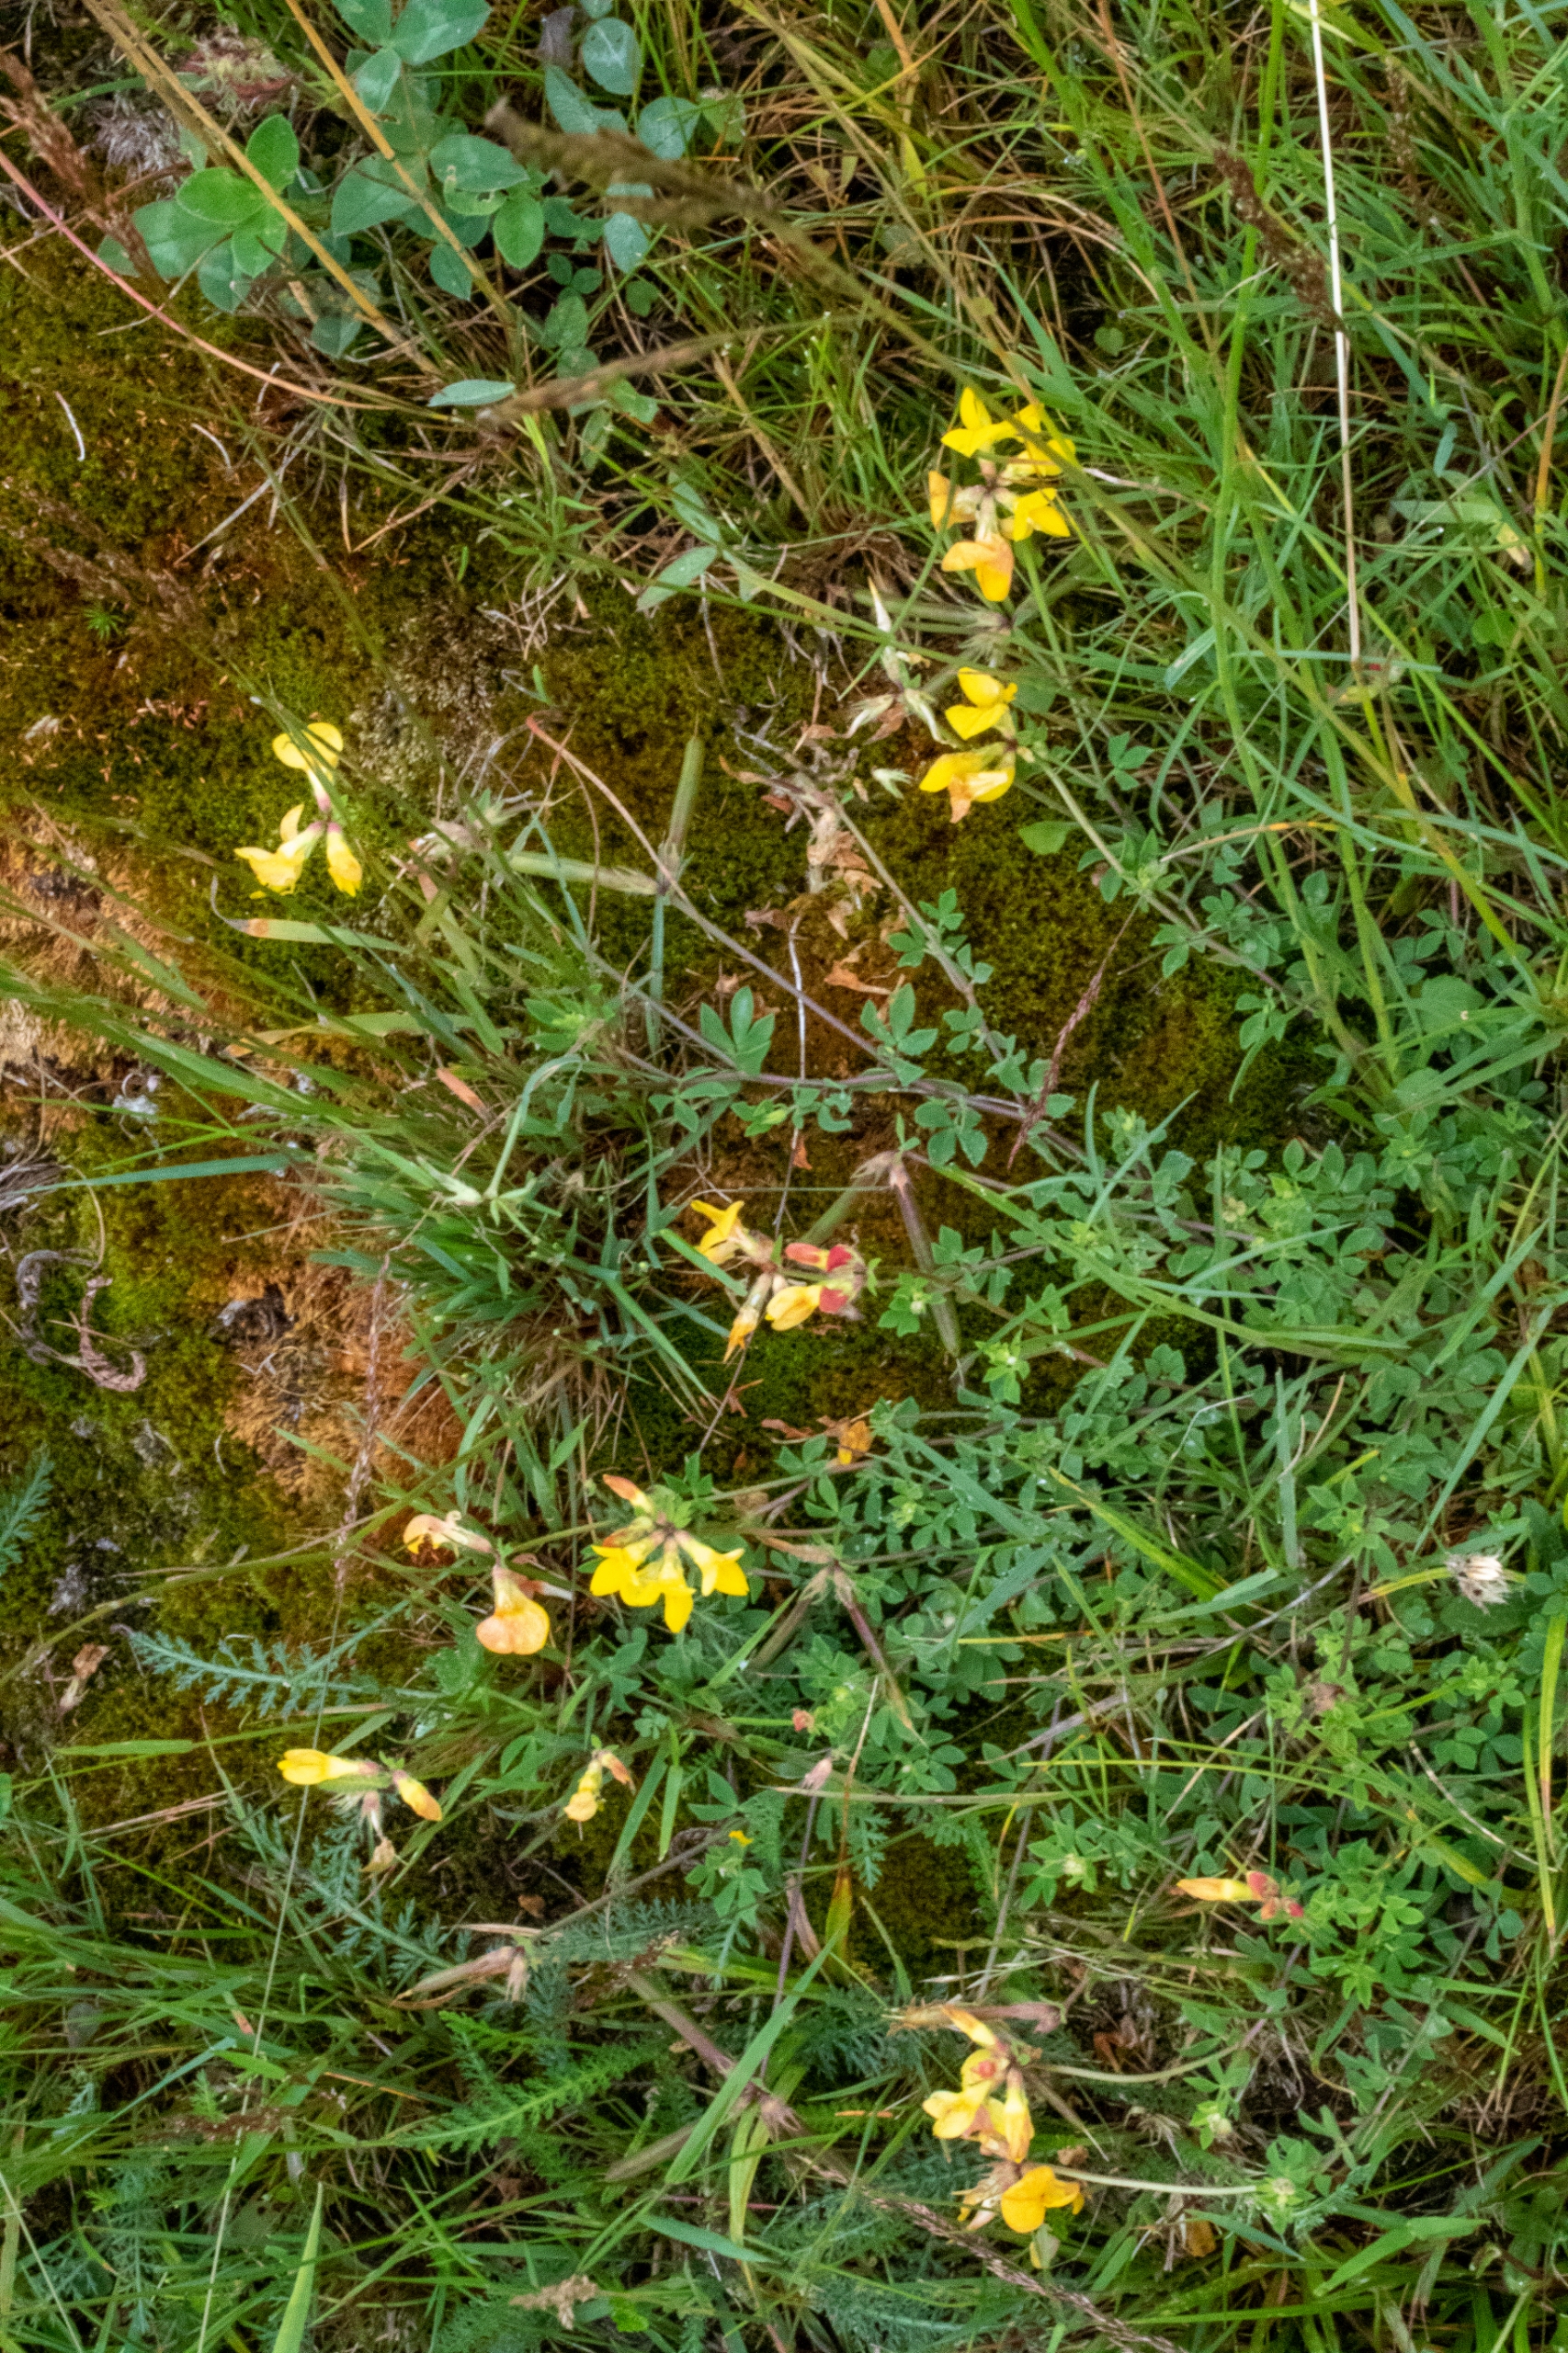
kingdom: Plantae
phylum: Tracheophyta
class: Magnoliopsida
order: Fabales
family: Fabaceae
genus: Lotus
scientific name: Lotus corniculatus
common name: Almindelig kællingetand
